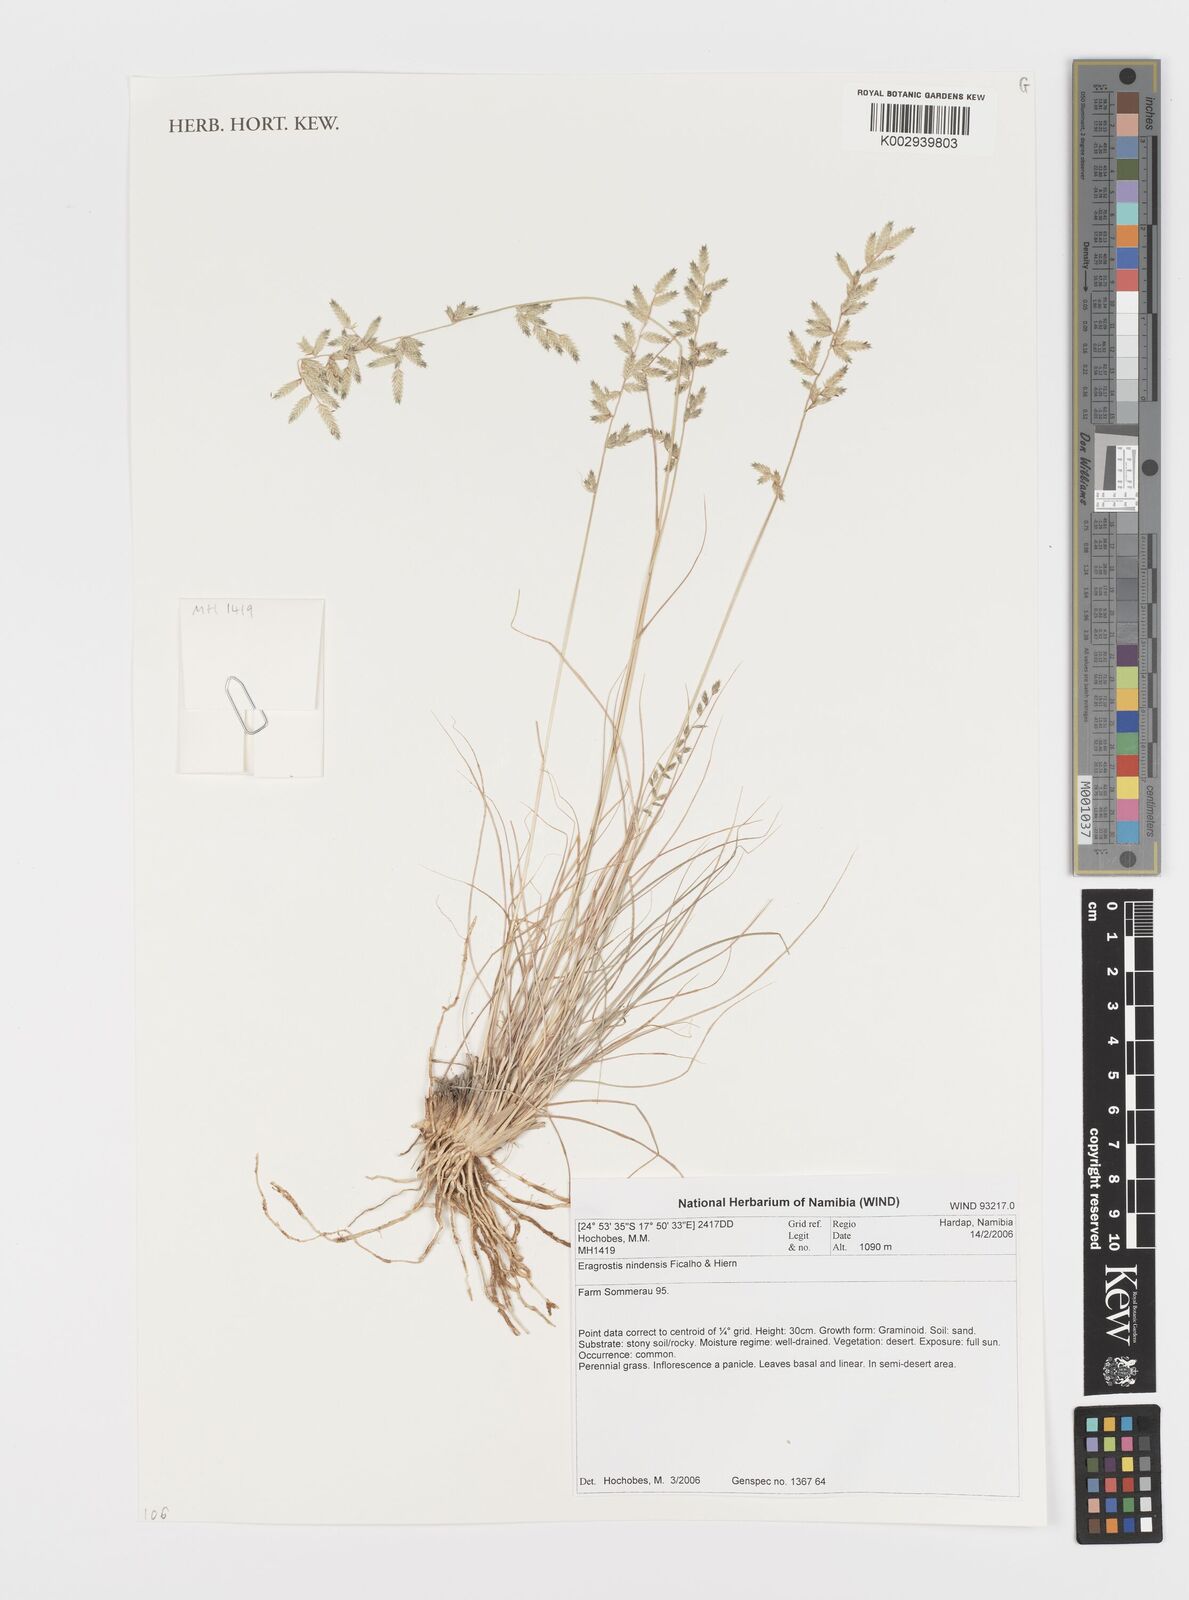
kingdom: Plantae
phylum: Tracheophyta
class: Liliopsida
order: Poales
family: Poaceae
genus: Eragrostis
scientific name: Eragrostis nindensis
